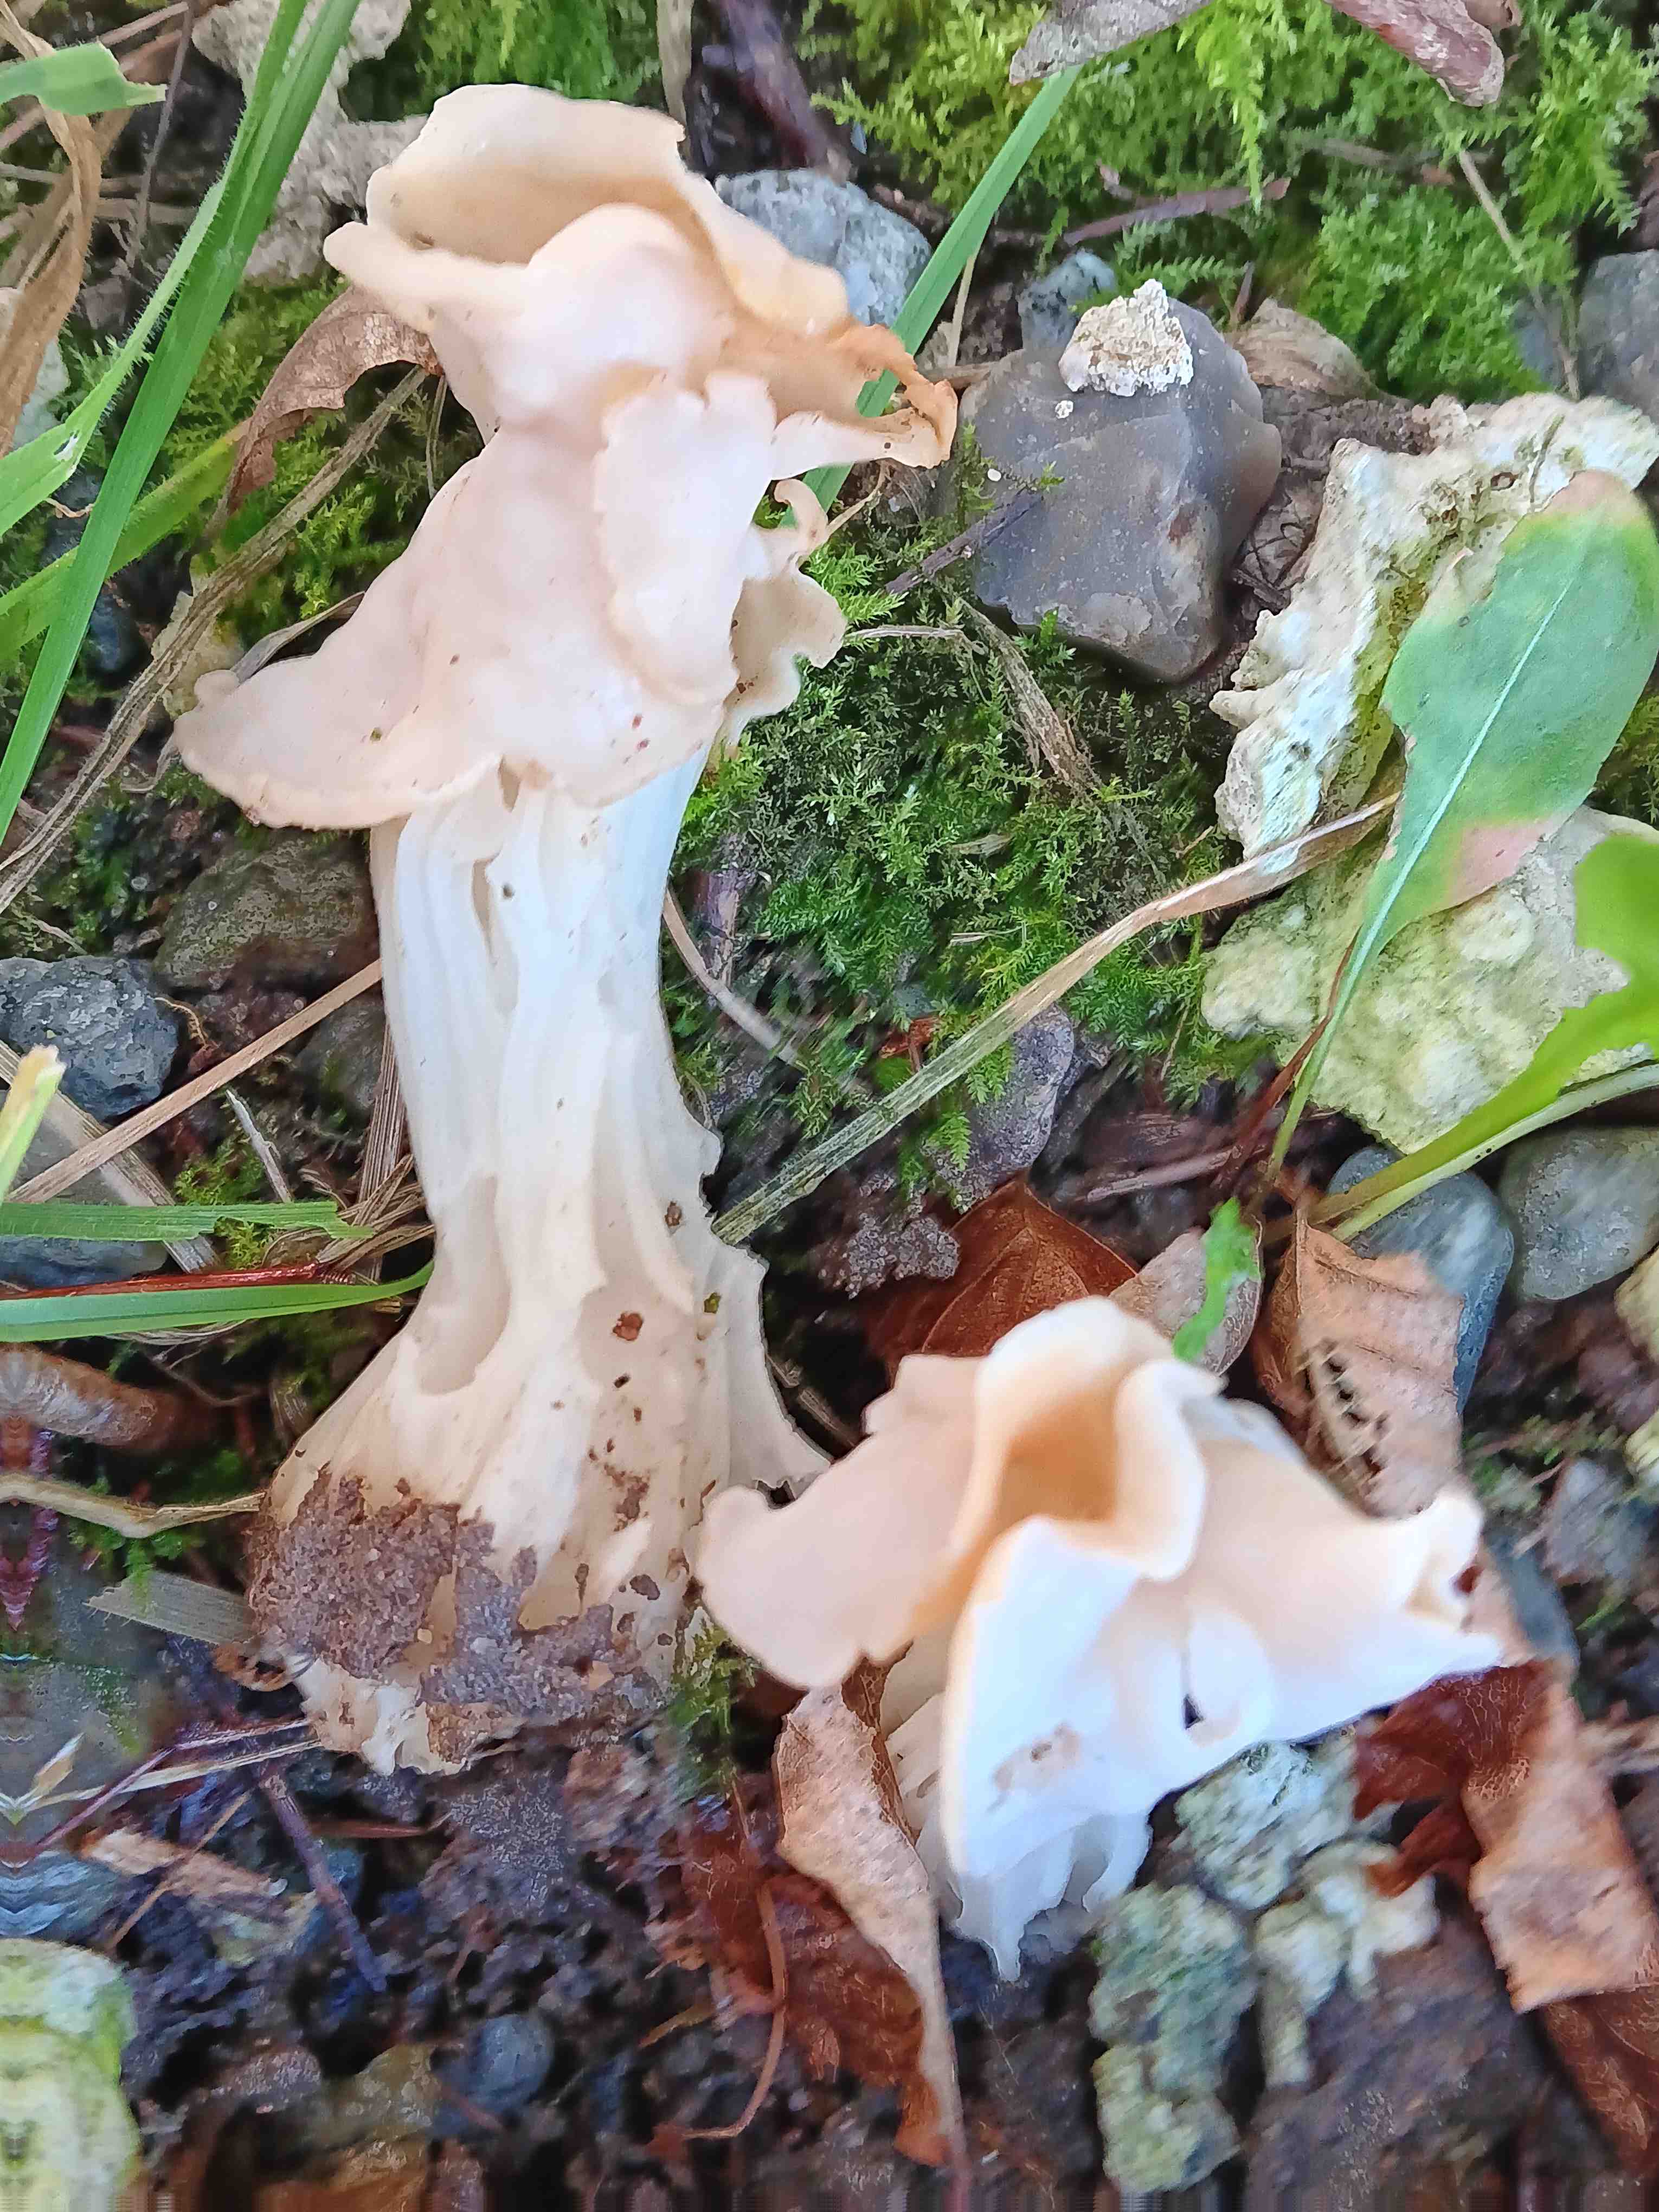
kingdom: Fungi
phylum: Ascomycota
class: Pezizomycetes
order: Pezizales
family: Helvellaceae
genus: Helvella
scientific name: Helvella crispa
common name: kruset foldhat
